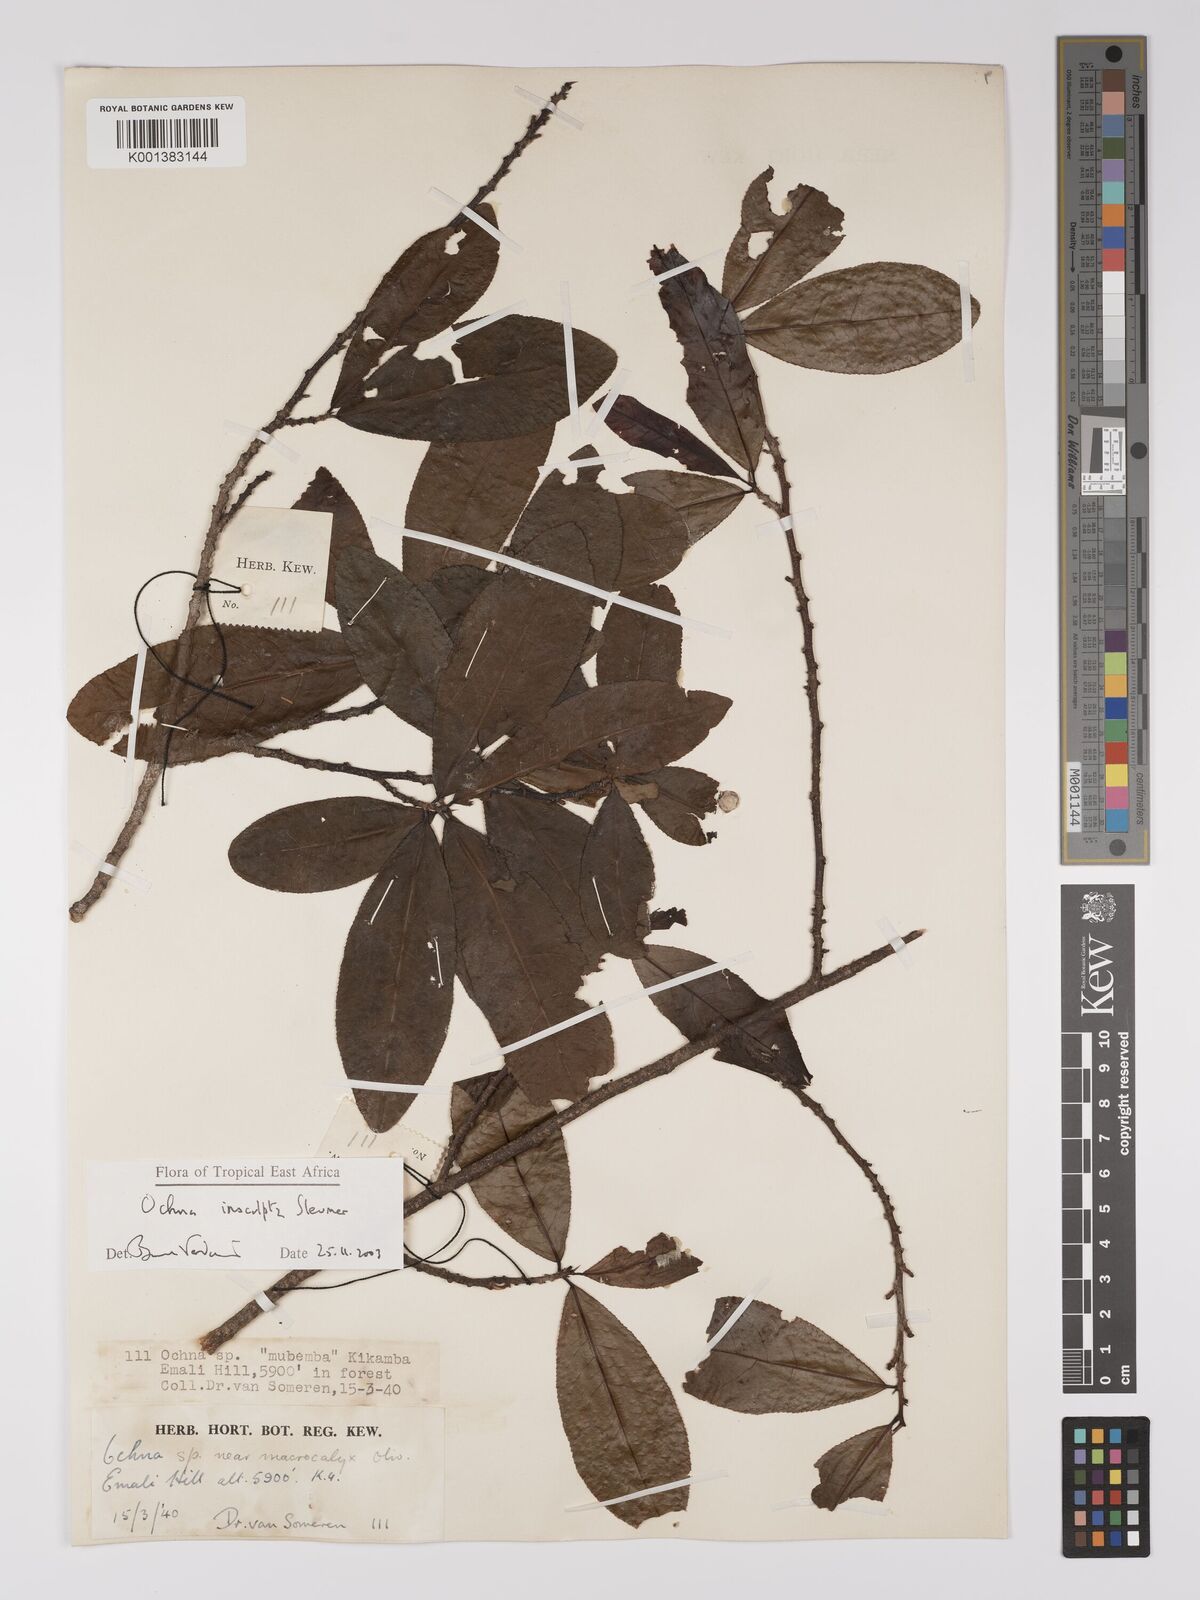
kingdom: Plantae
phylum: Tracheophyta
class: Magnoliopsida
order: Malpighiales
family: Ochnaceae
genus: Ochna
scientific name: Ochna
